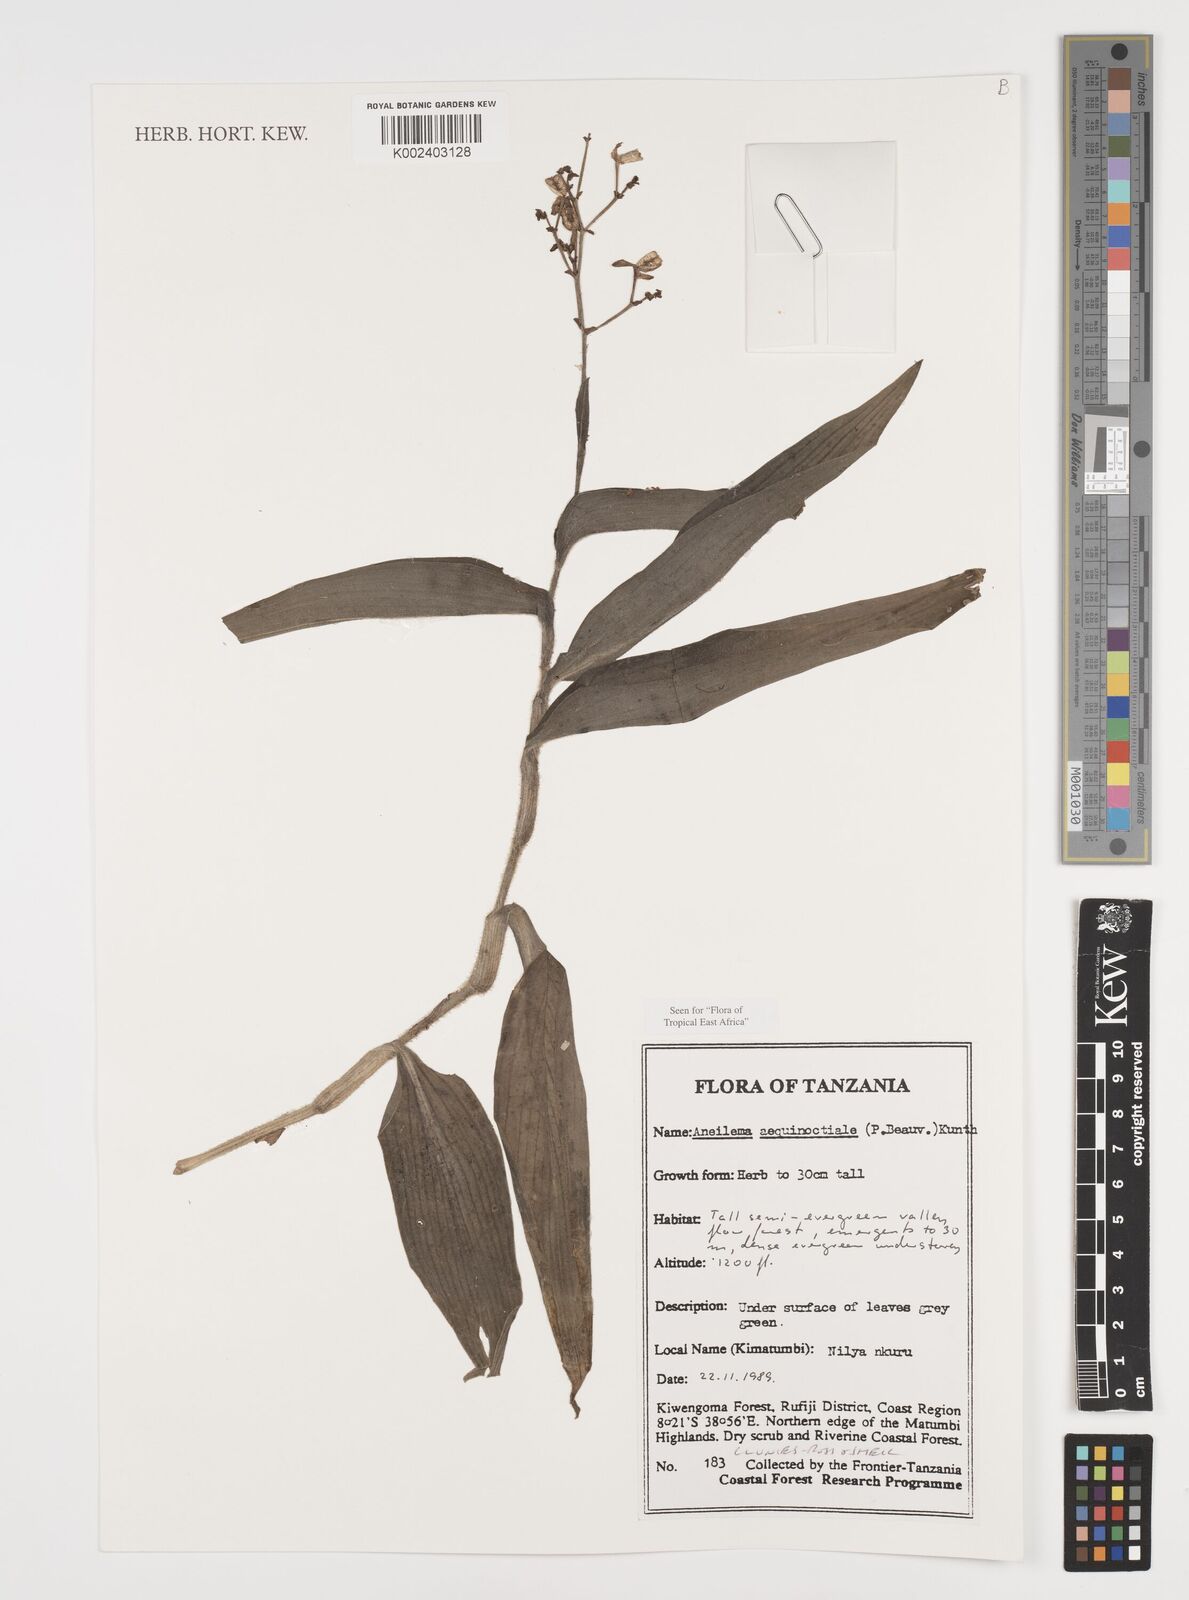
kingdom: Plantae
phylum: Tracheophyta
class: Liliopsida
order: Commelinales
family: Commelinaceae
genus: Aneilema
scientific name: Aneilema aequinoctiale
